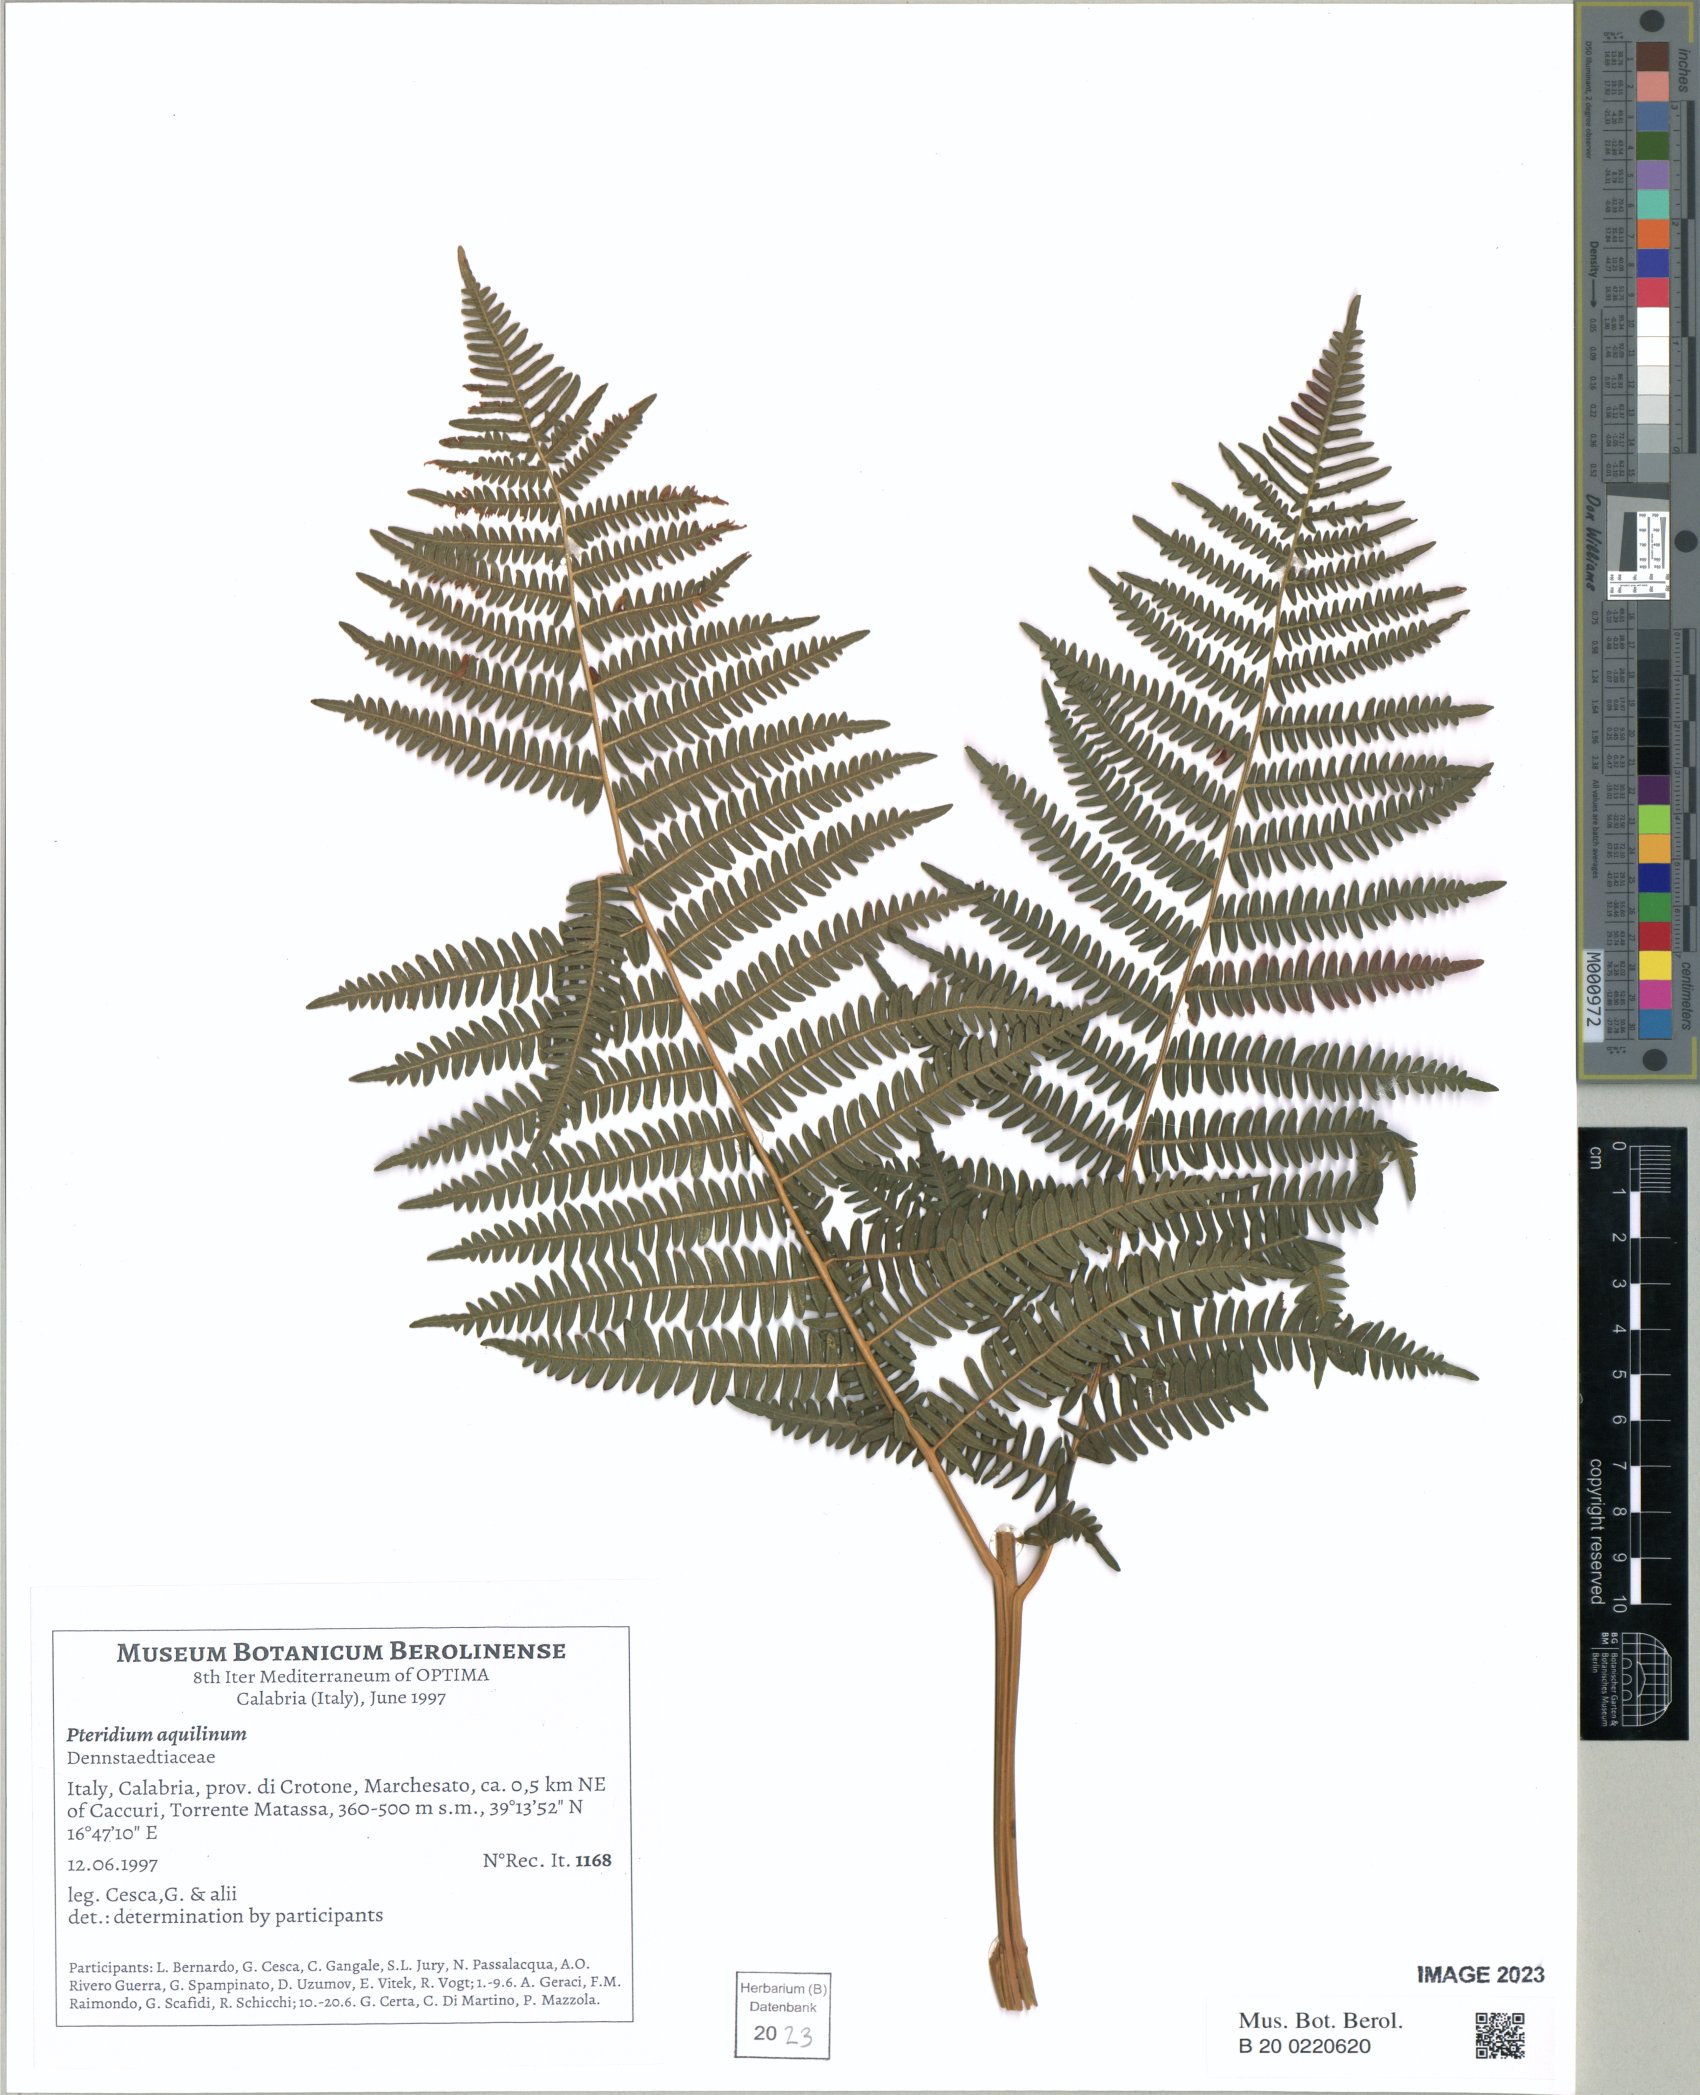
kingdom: Plantae
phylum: Tracheophyta
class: Polypodiopsida
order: Polypodiales
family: Dennstaedtiaceae
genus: Pteridium
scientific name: Pteridium aquilinum
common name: Bracken
